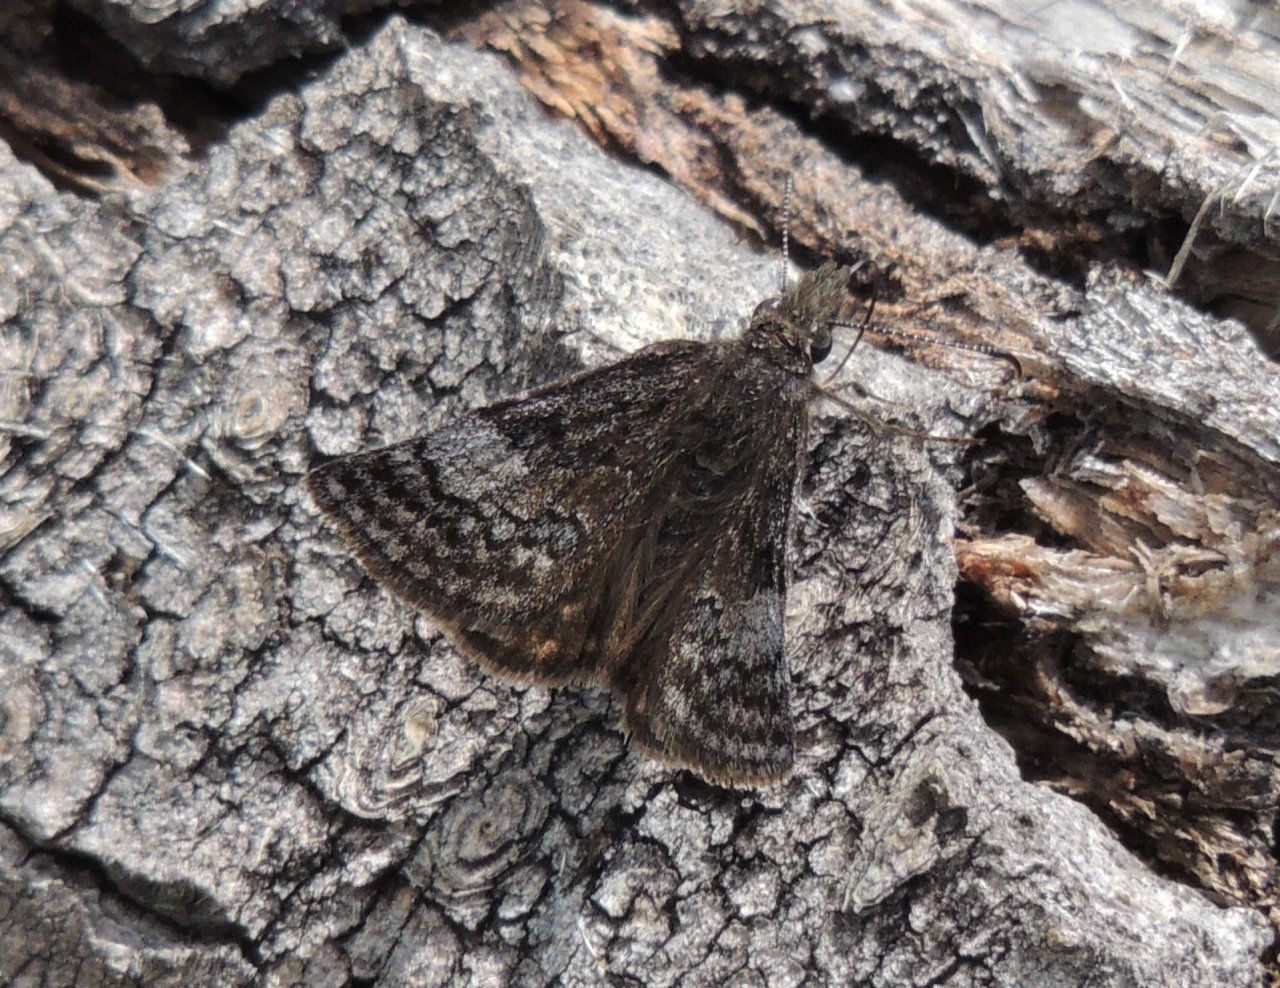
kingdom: Animalia
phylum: Arthropoda
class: Insecta
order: Lepidoptera
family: Hesperiidae
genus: Erynnis
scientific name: Erynnis icelus
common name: Dreamy Duskywing
